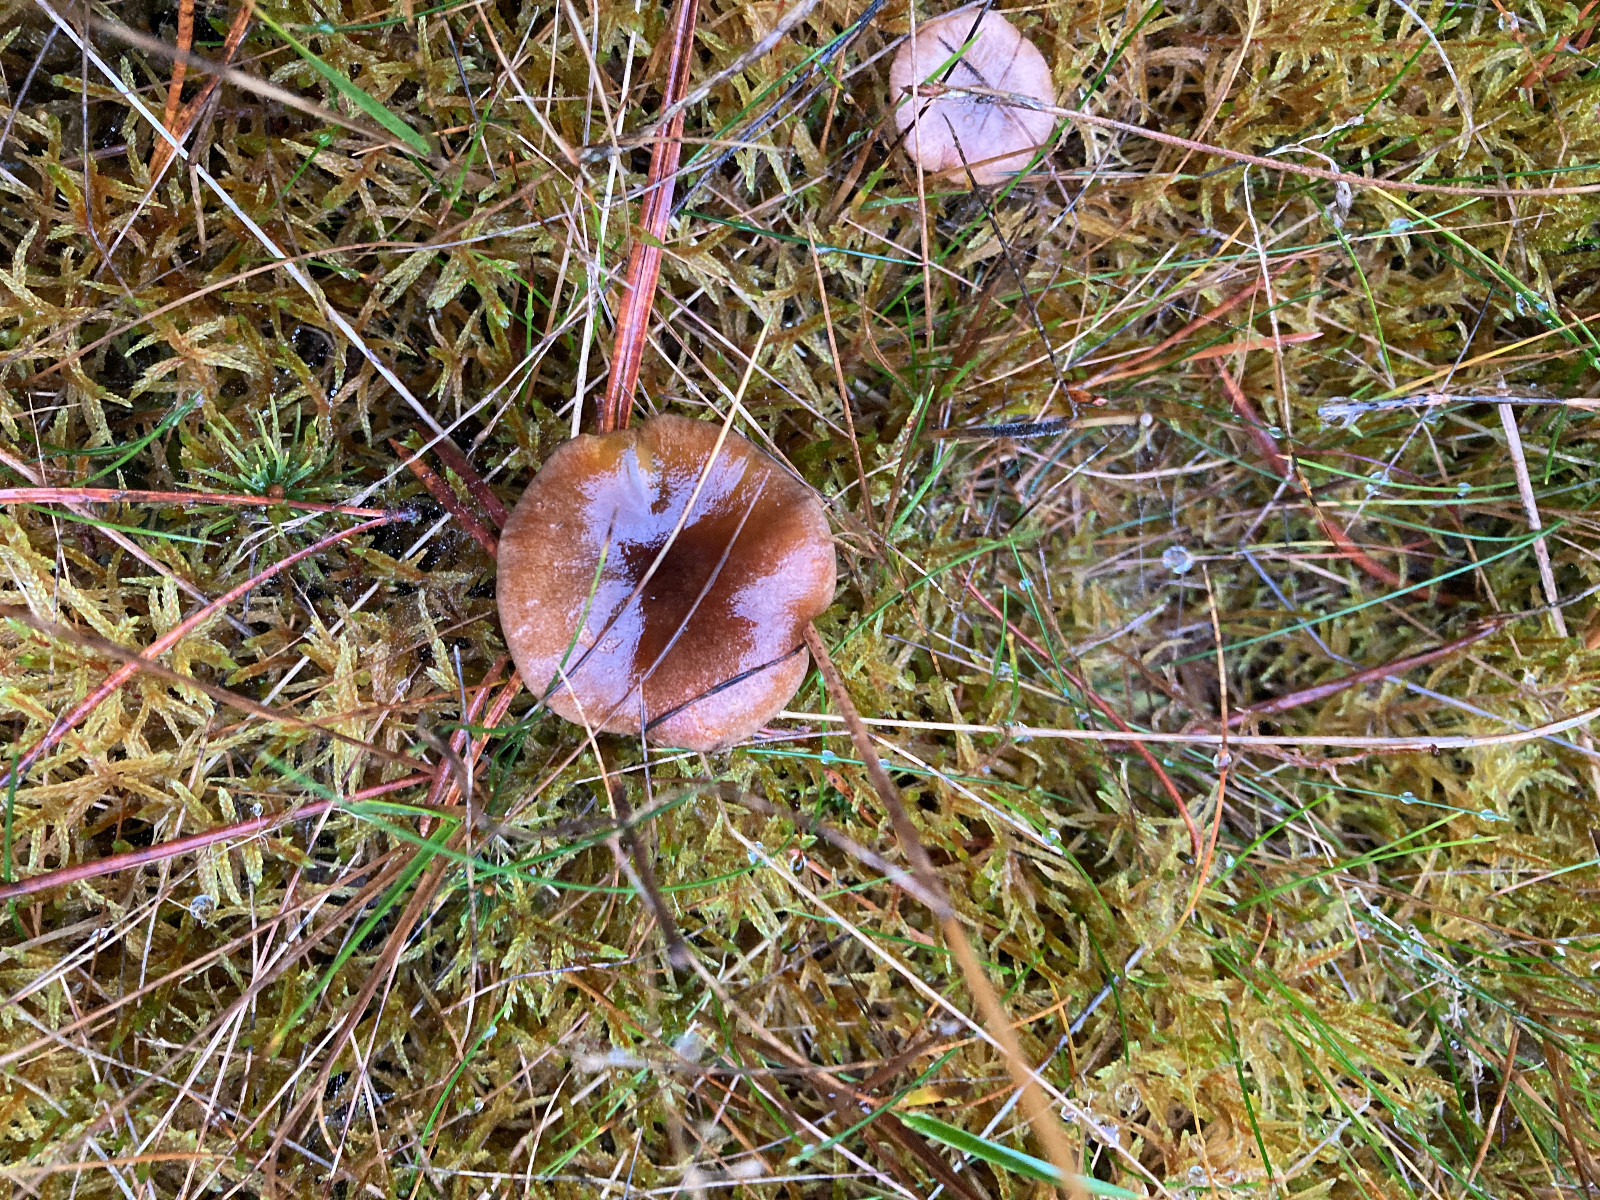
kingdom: Fungi
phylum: Basidiomycota
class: Agaricomycetes
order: Agaricales
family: Hygrophoraceae
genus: Hygrophorus
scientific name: Hygrophorus hypothejus
